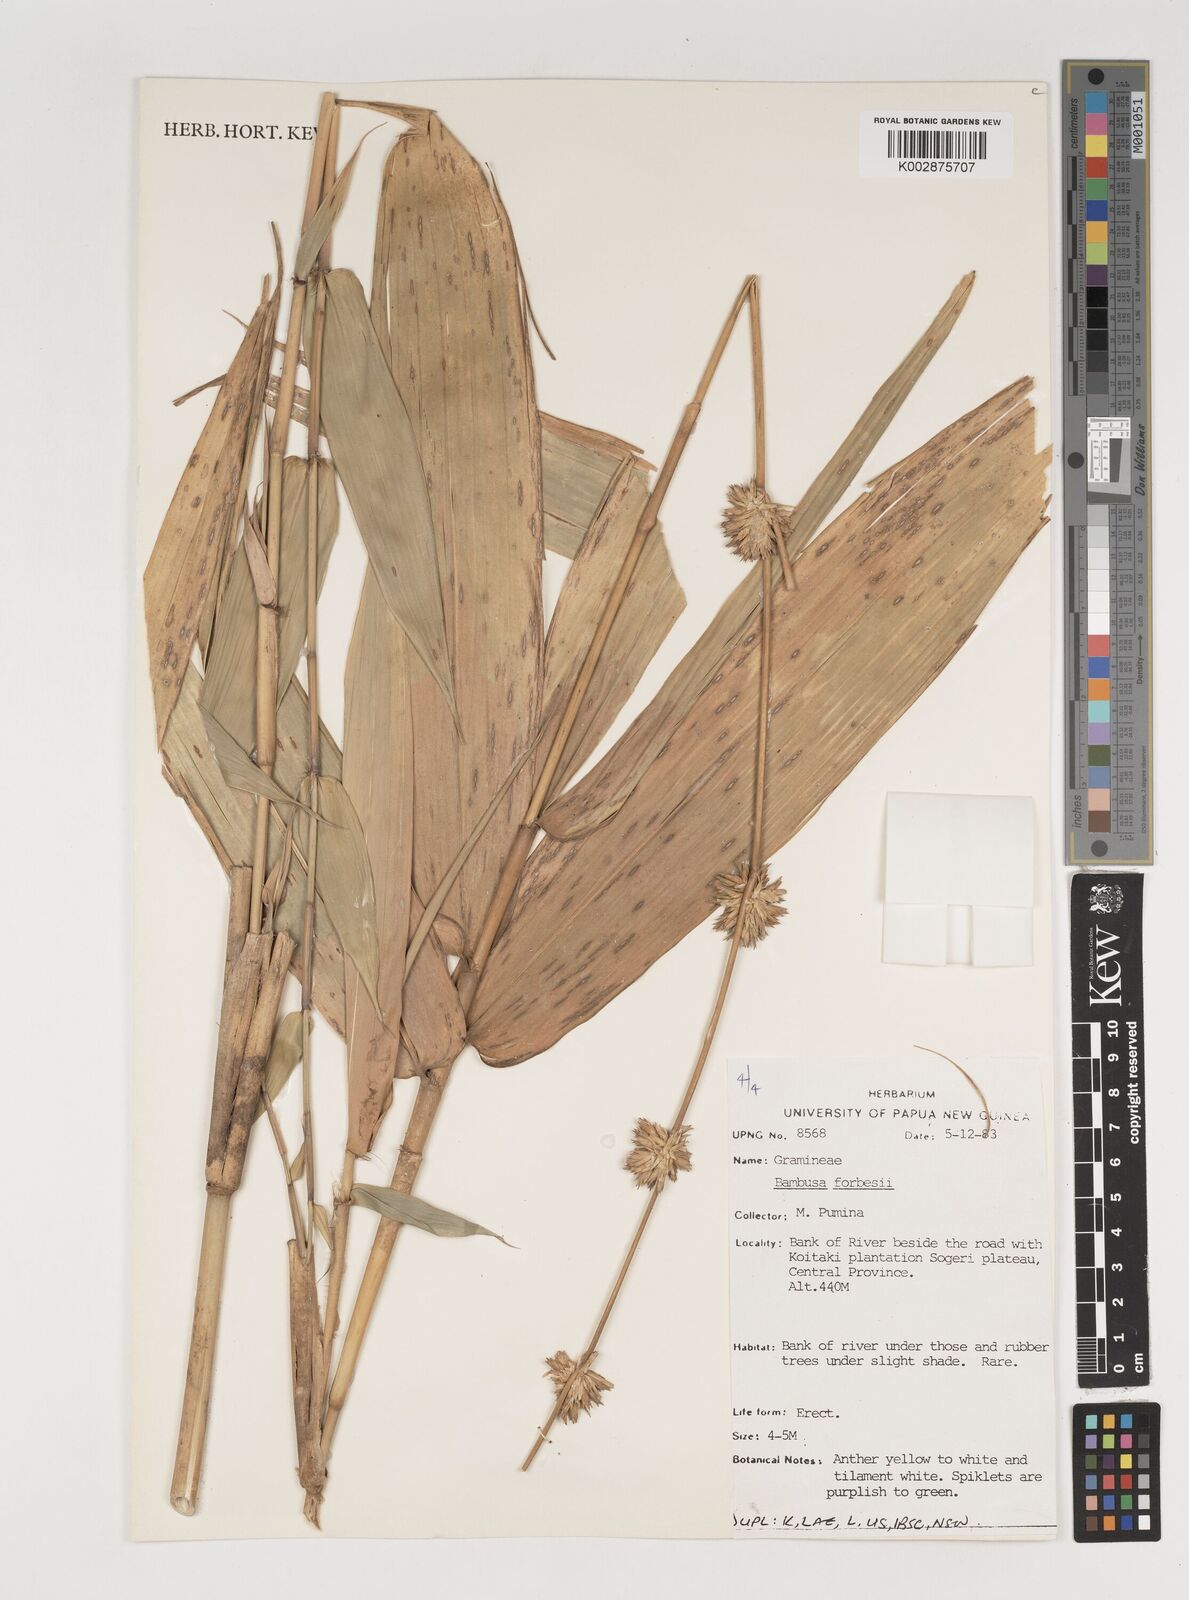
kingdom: Plantae
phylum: Tracheophyta
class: Liliopsida
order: Poales
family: Poaceae
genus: Neololeba
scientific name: Neololeba atra
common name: Cape bamboo
